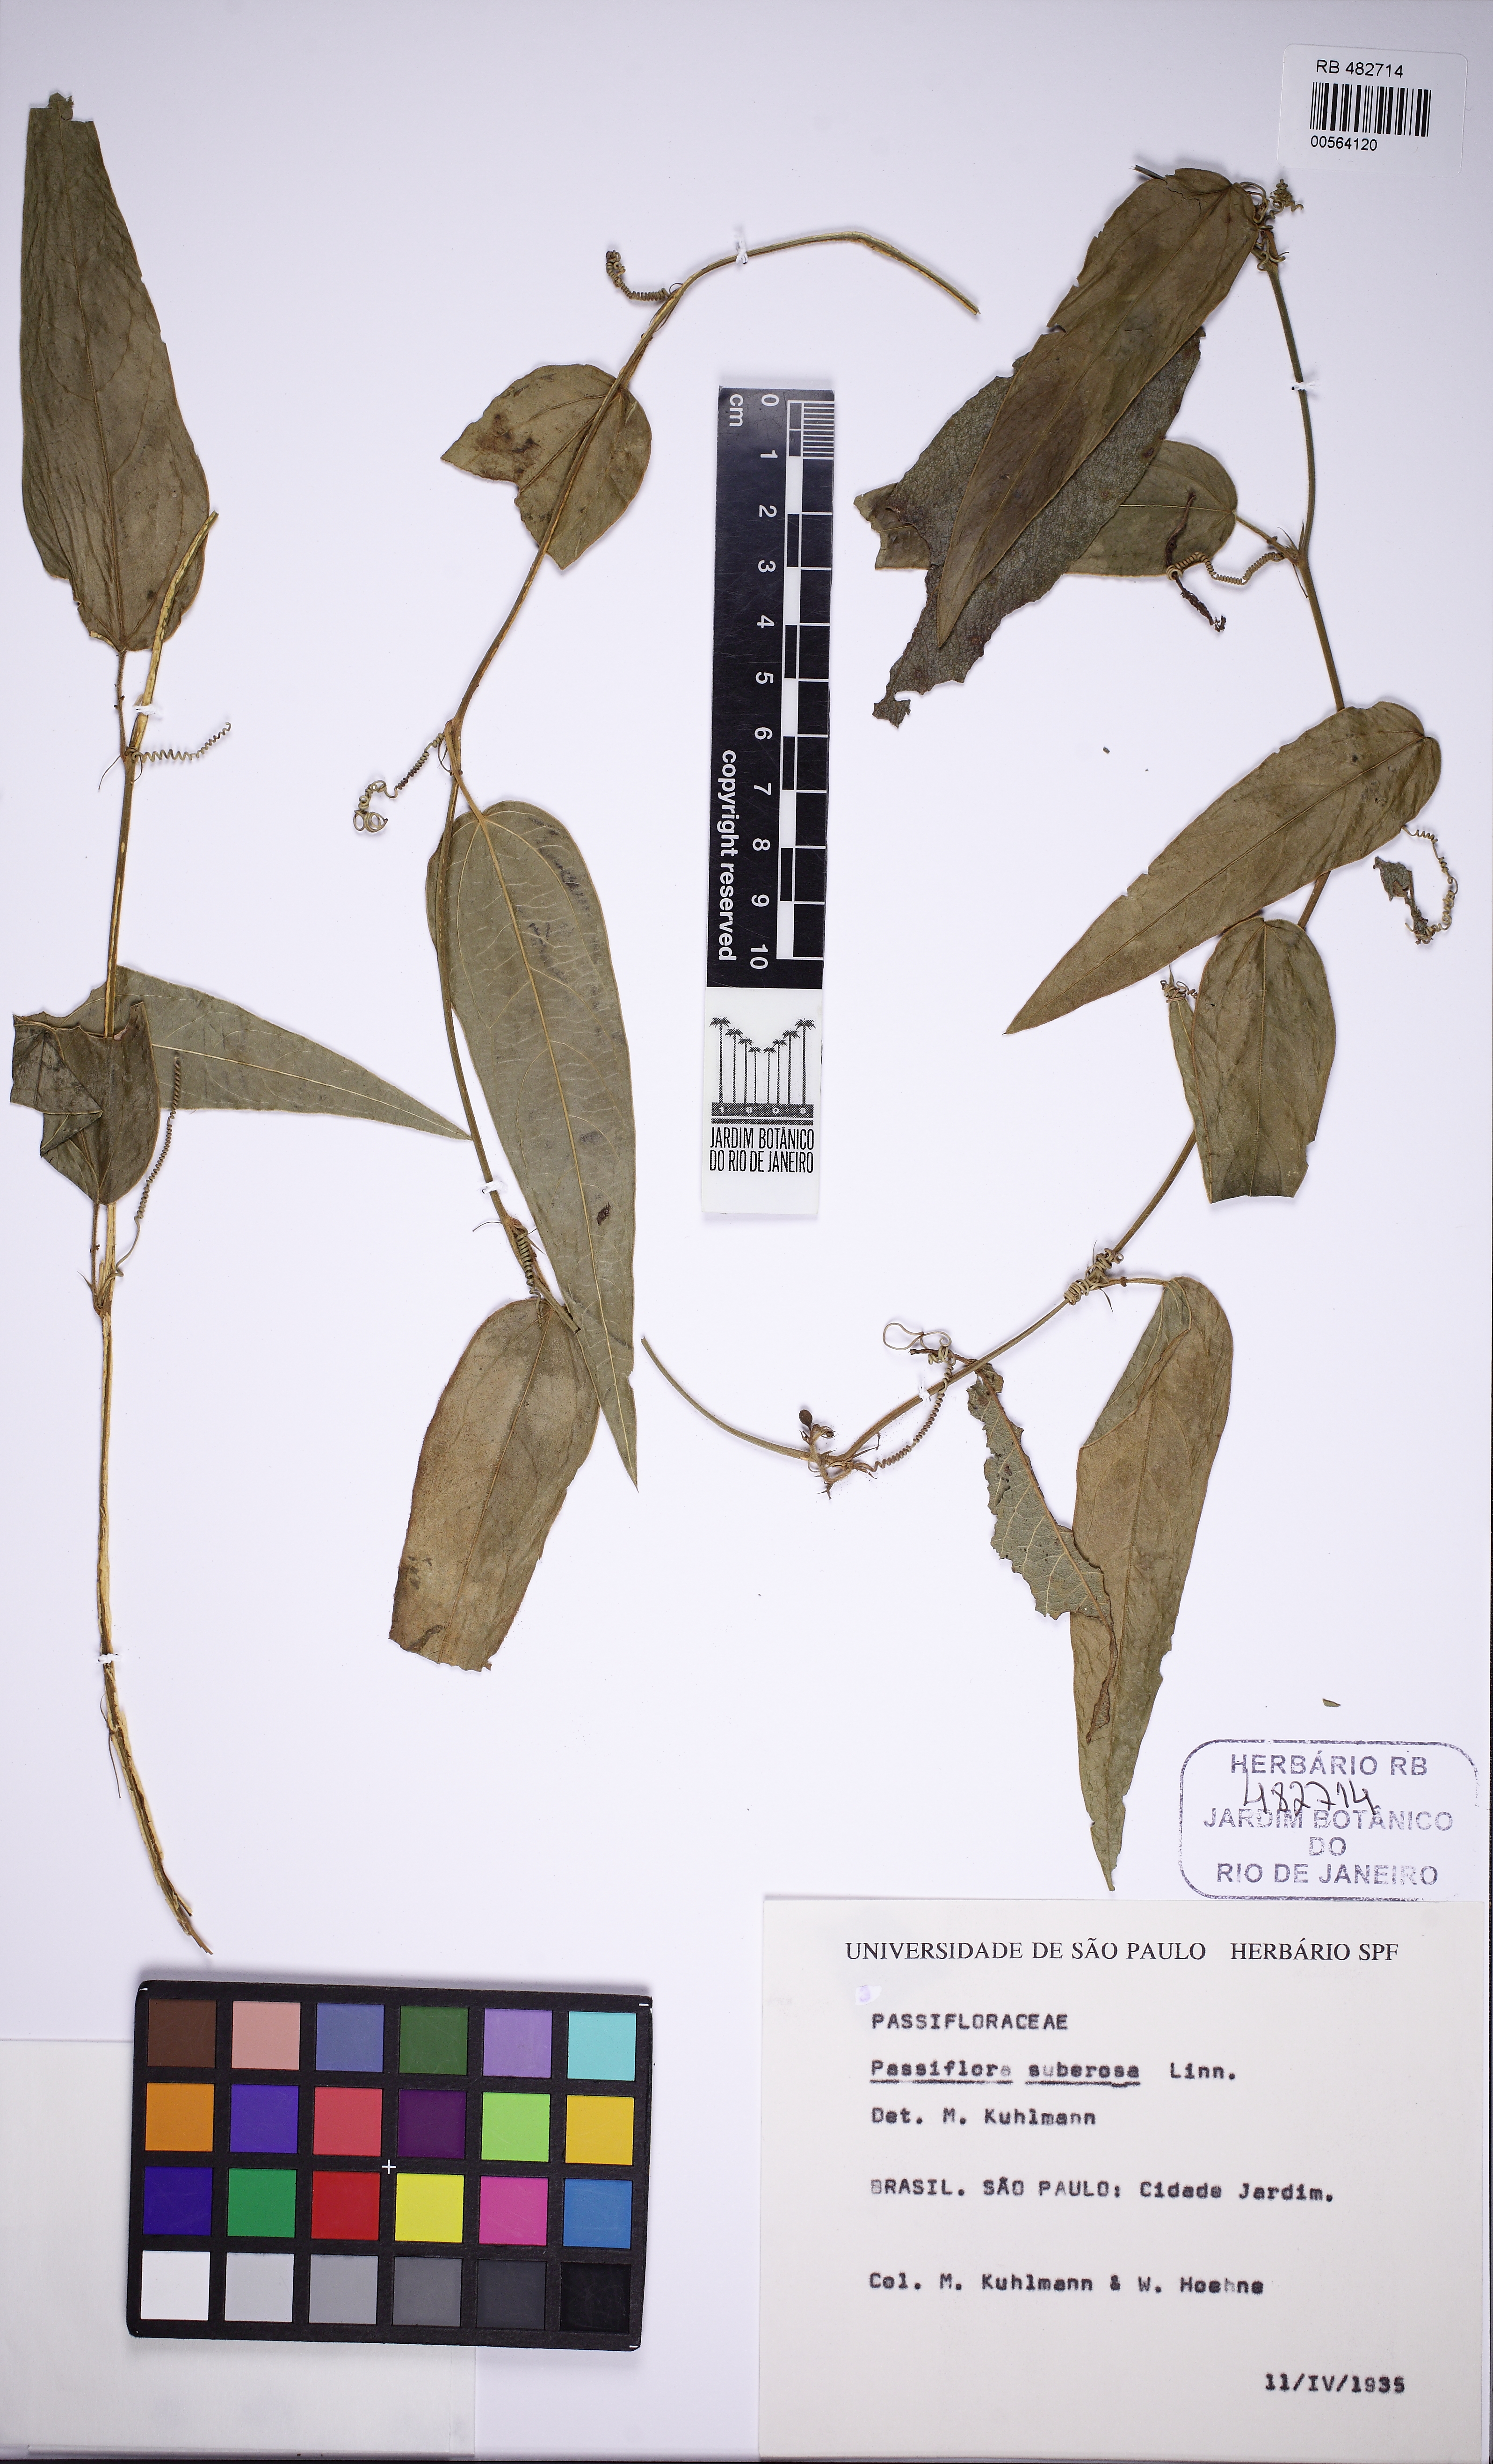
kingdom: Plantae
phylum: Tracheophyta
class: Magnoliopsida
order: Malpighiales
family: Passifloraceae
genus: Passiflora
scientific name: Passiflora suberosa
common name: Wild passionfruit
